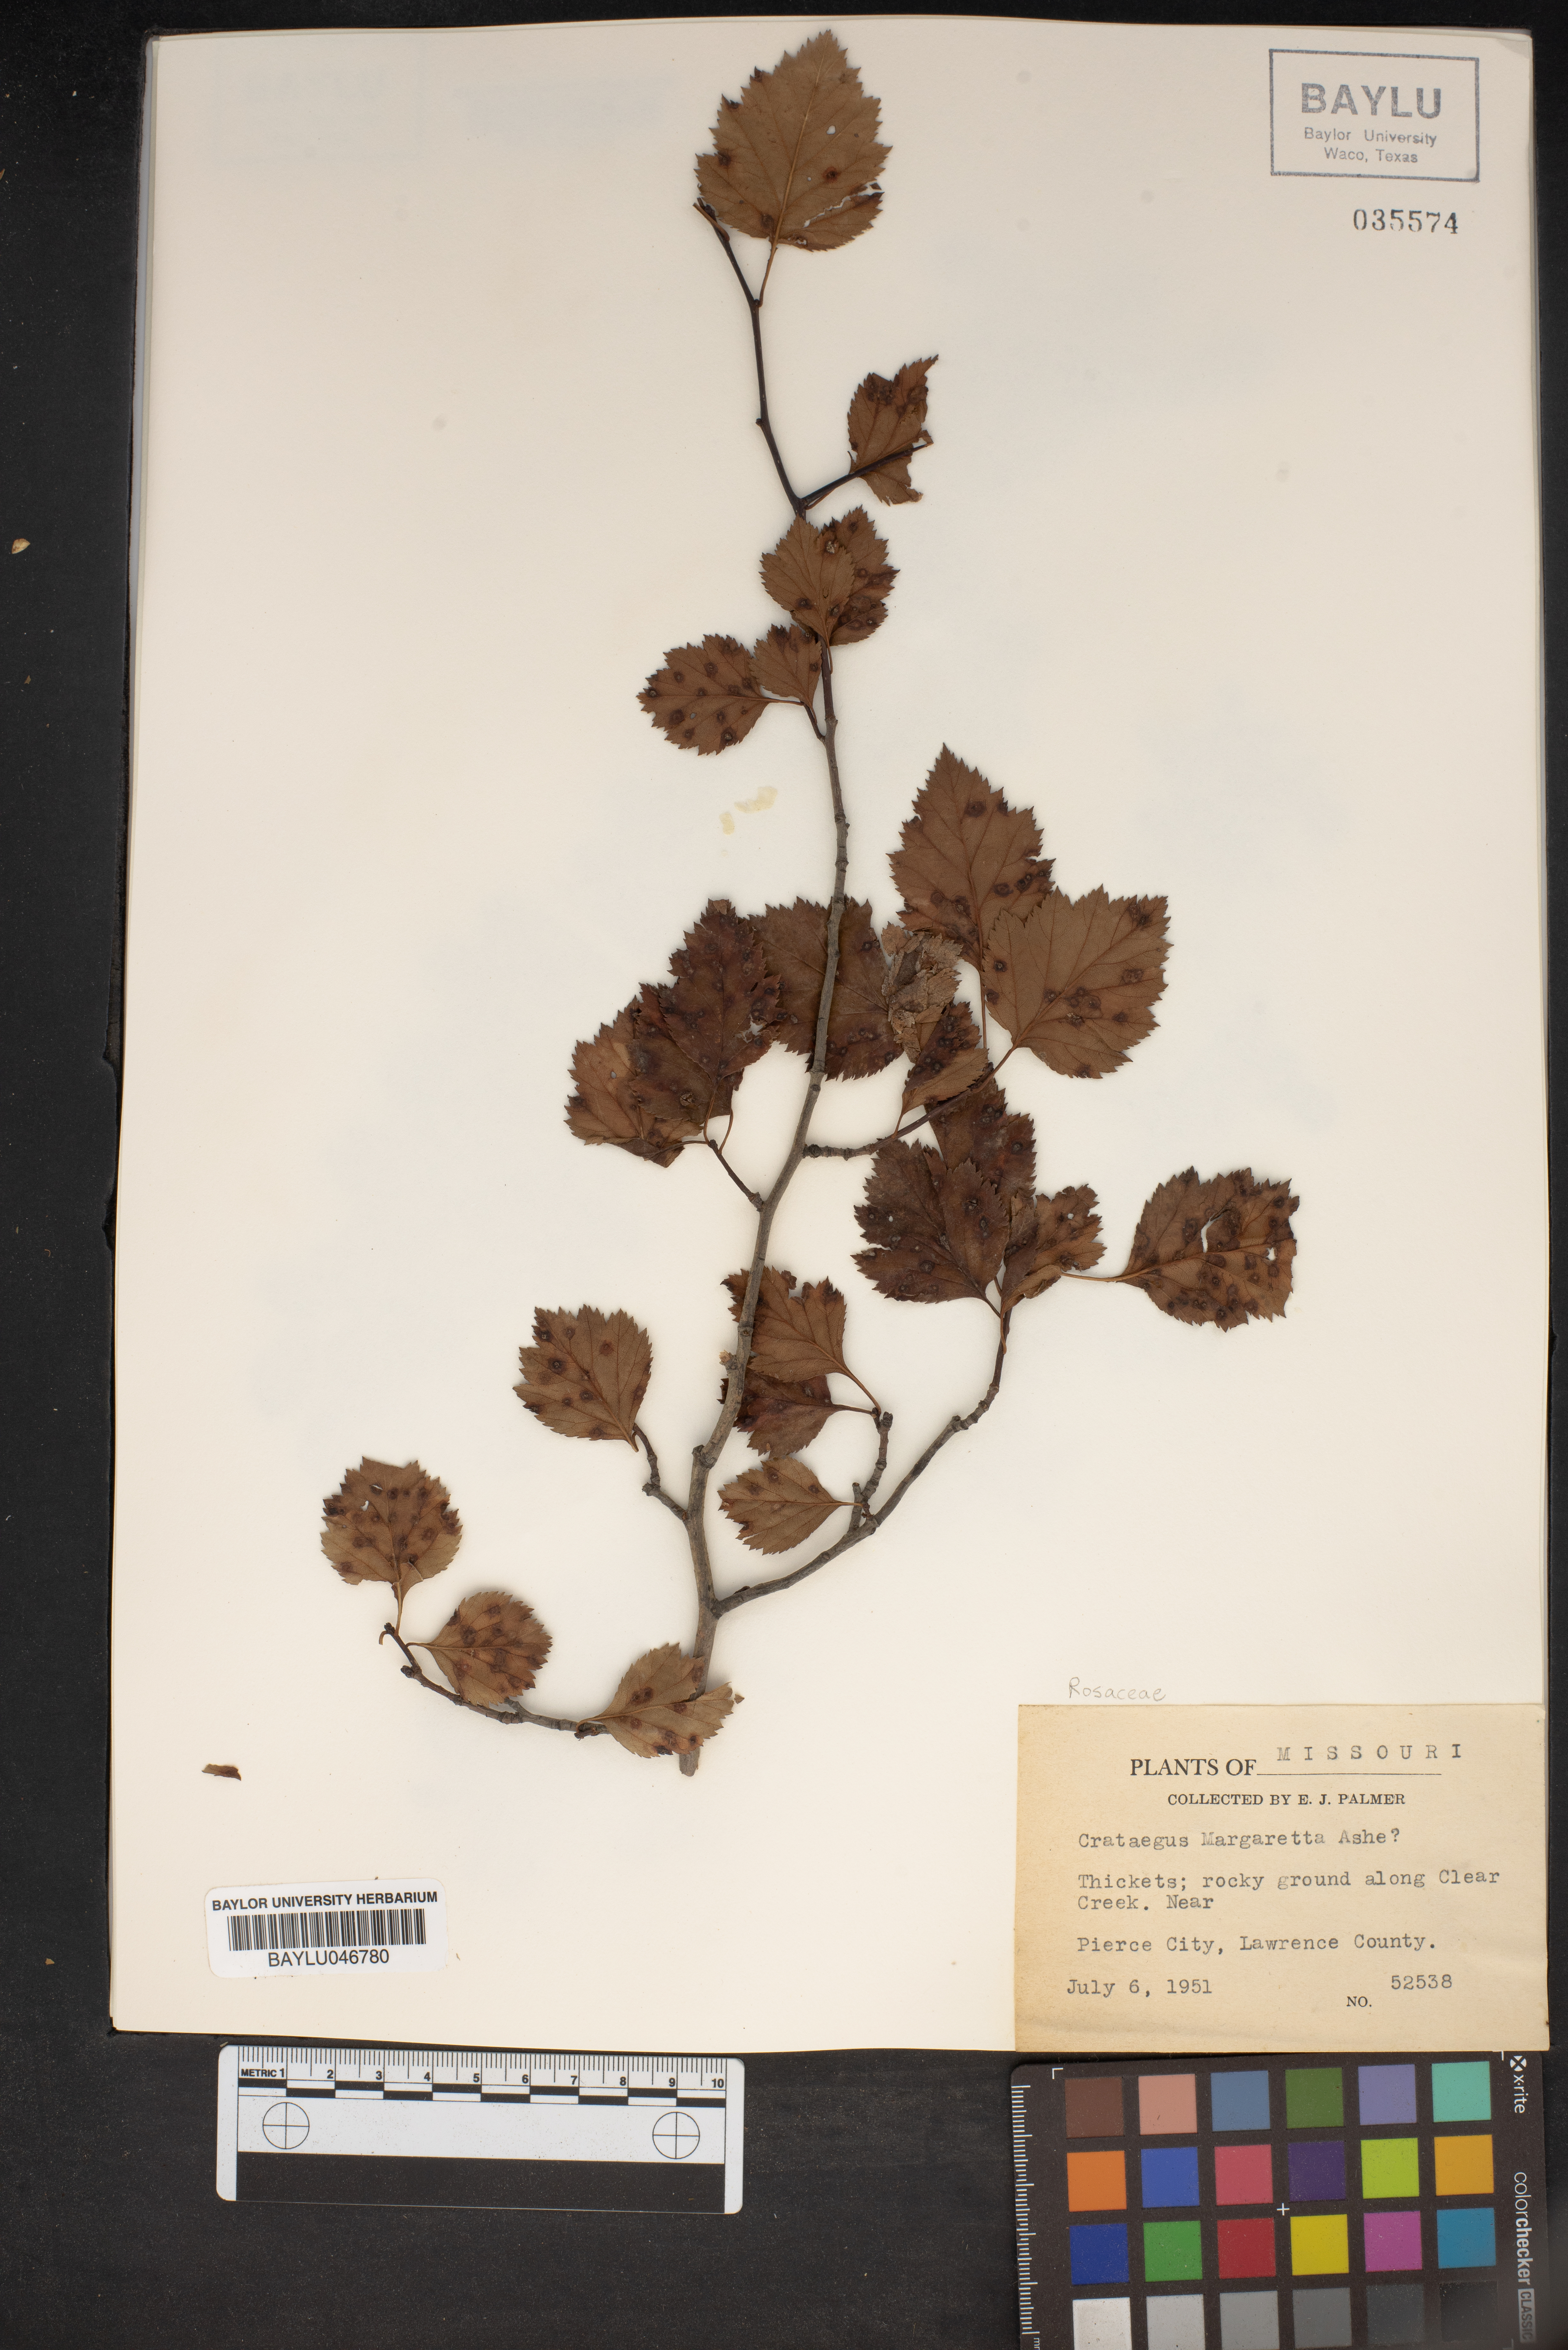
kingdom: Plantae
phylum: Tracheophyta
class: Magnoliopsida
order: Rosales
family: Rosaceae
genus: Crataegus
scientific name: Crataegus margaretta
